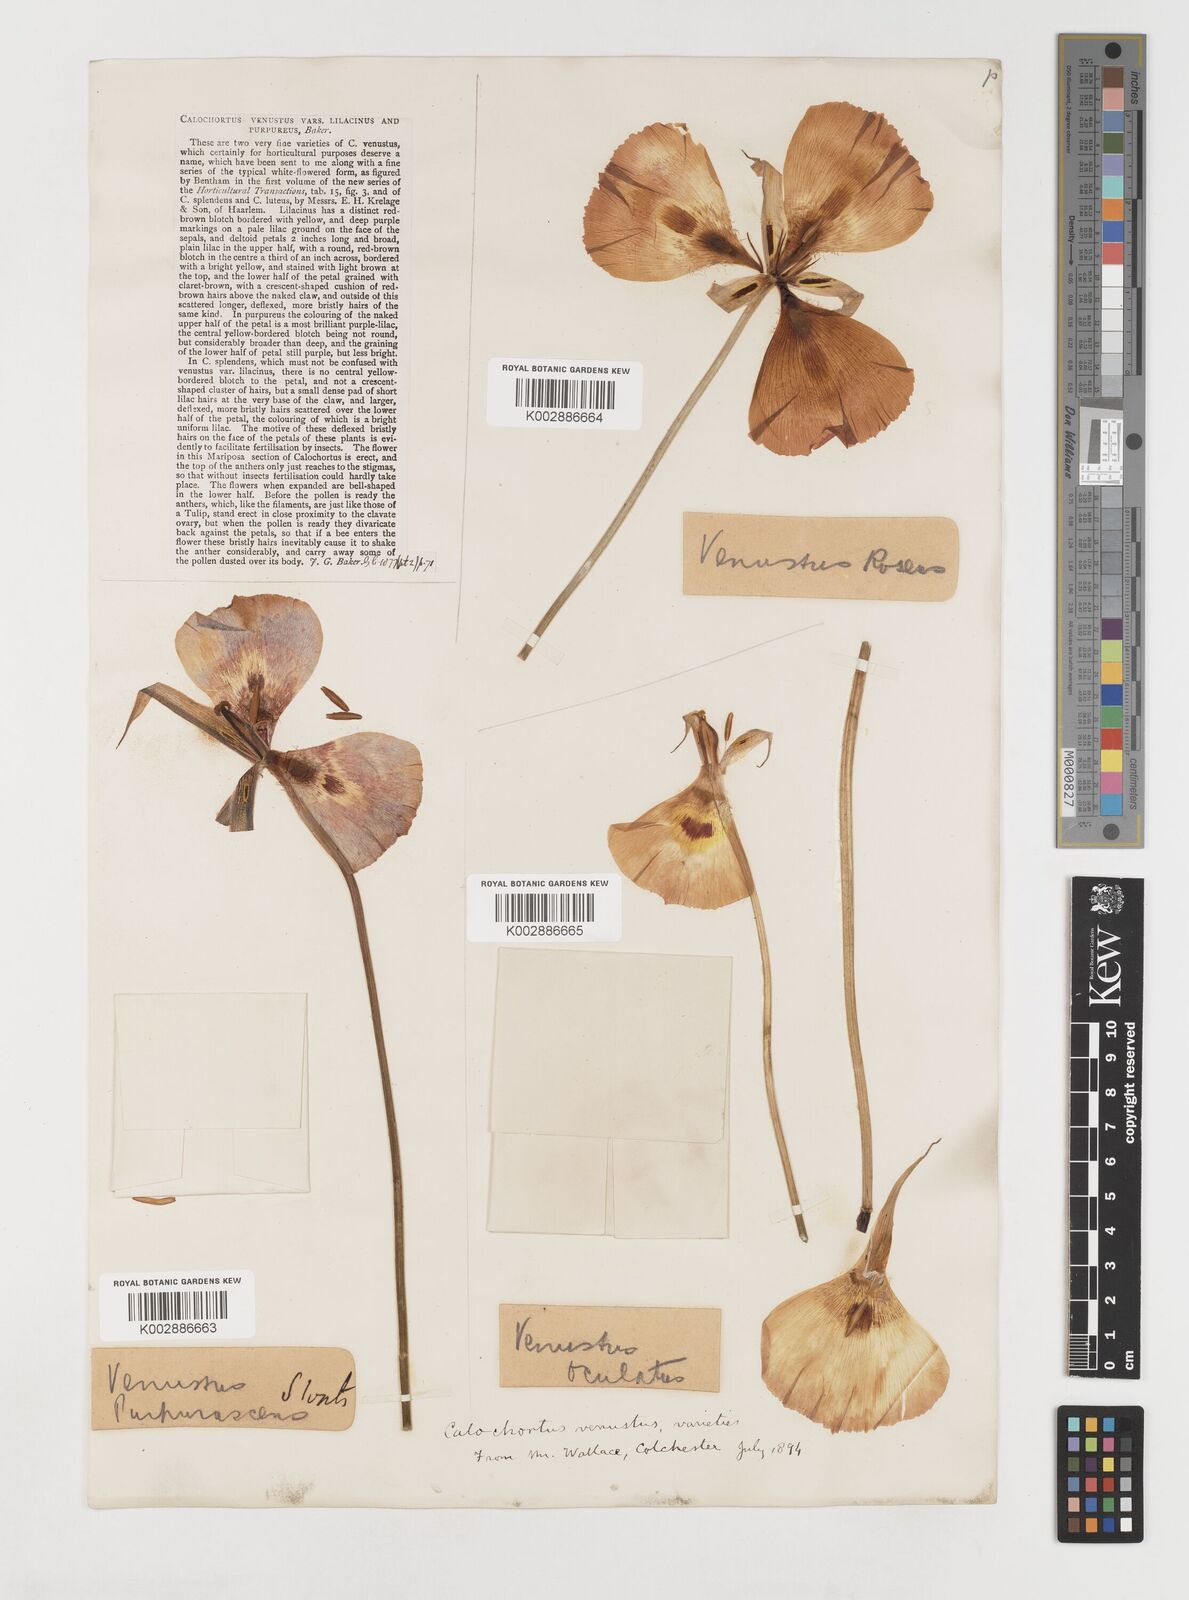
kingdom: Plantae
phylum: Tracheophyta
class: Liliopsida
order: Liliales
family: Liliaceae
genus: Calochortus
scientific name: Calochortus venustus
